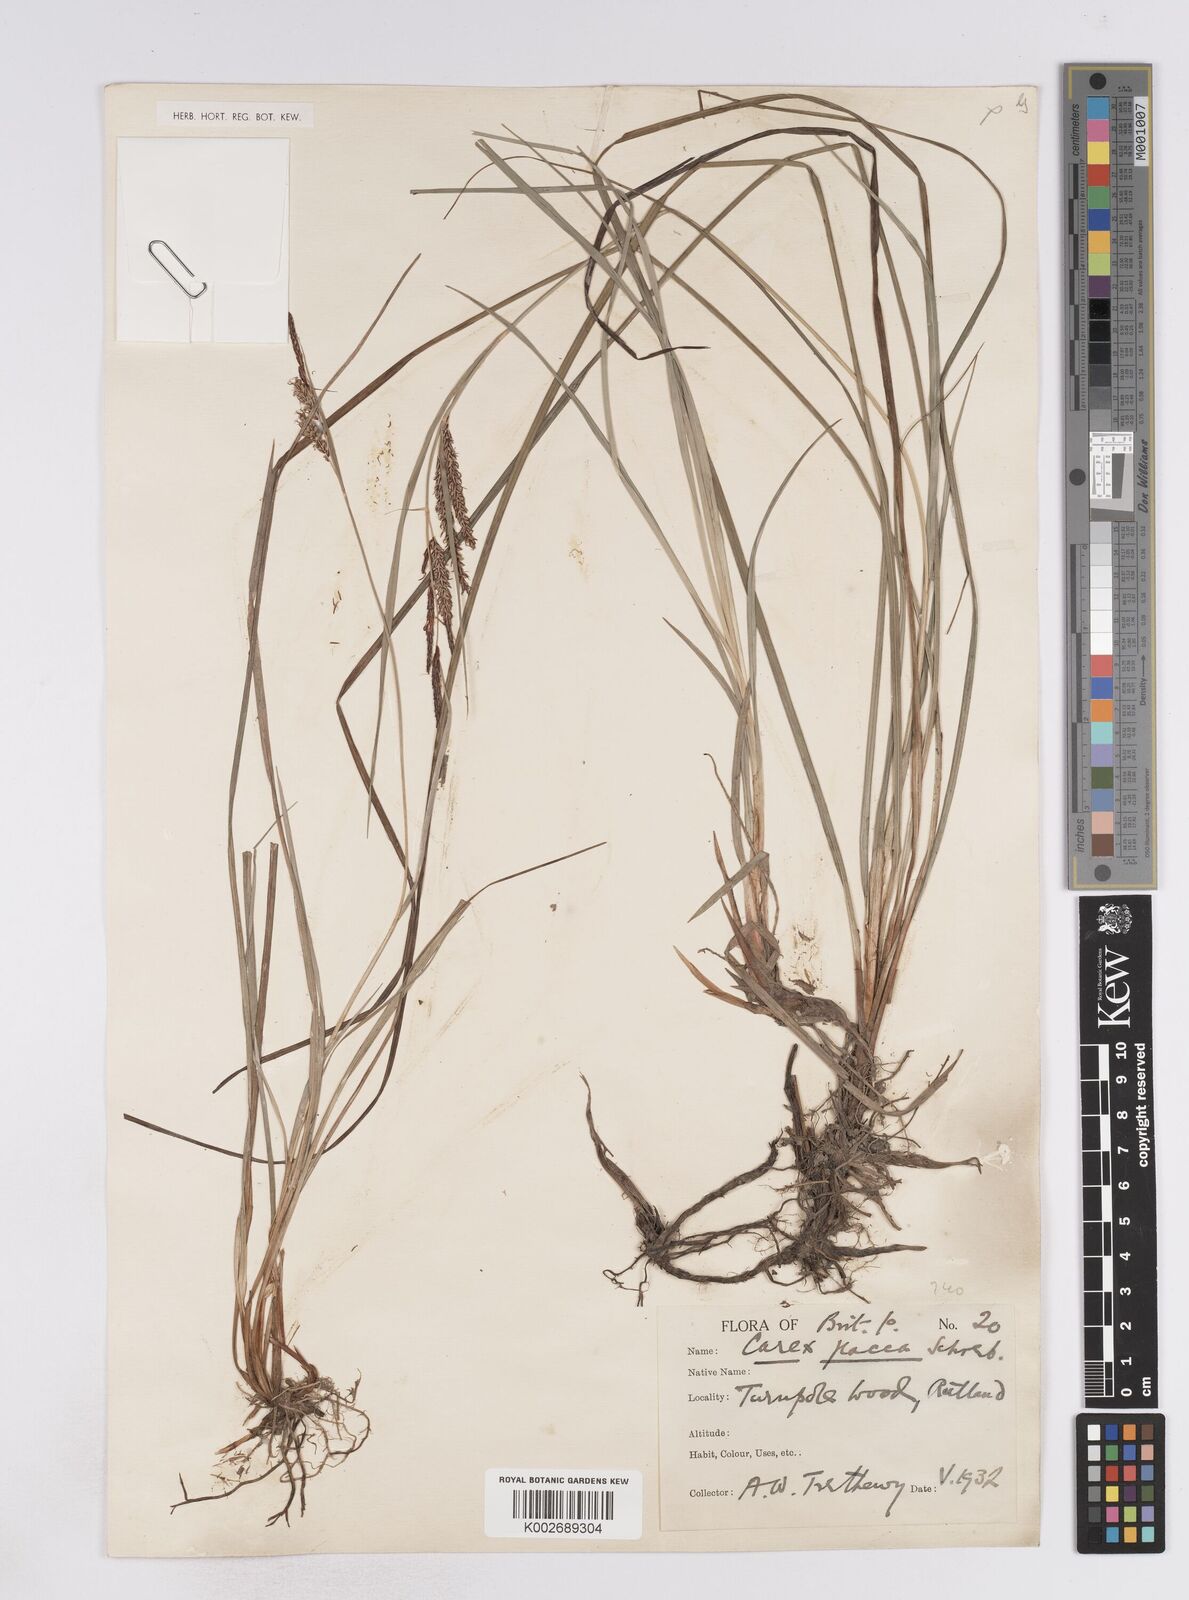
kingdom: Plantae
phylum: Tracheophyta
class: Liliopsida
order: Poales
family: Cyperaceae
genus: Carex
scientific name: Carex flacca
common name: Glaucous sedge
